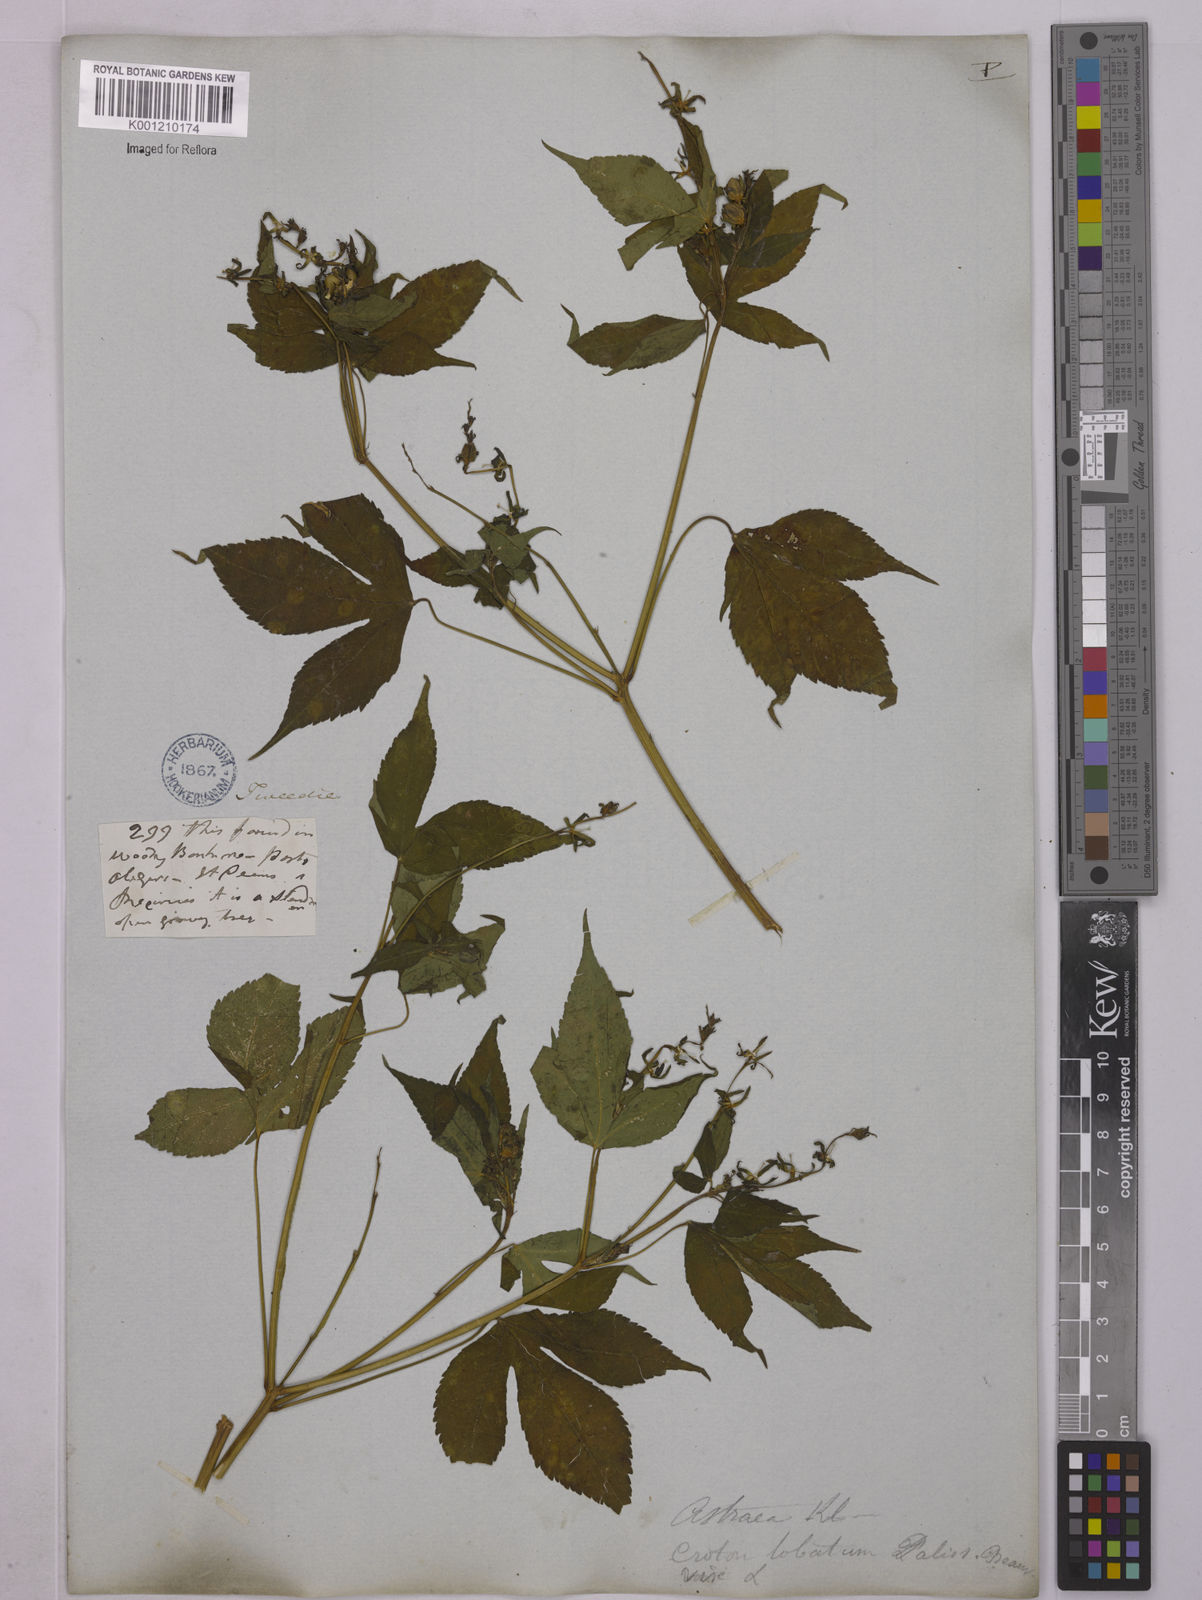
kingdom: Plantae
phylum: Tracheophyta
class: Magnoliopsida
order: Malpighiales
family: Euphorbiaceae
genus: Astraea
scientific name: Astraea lobata
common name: Lobed croton
